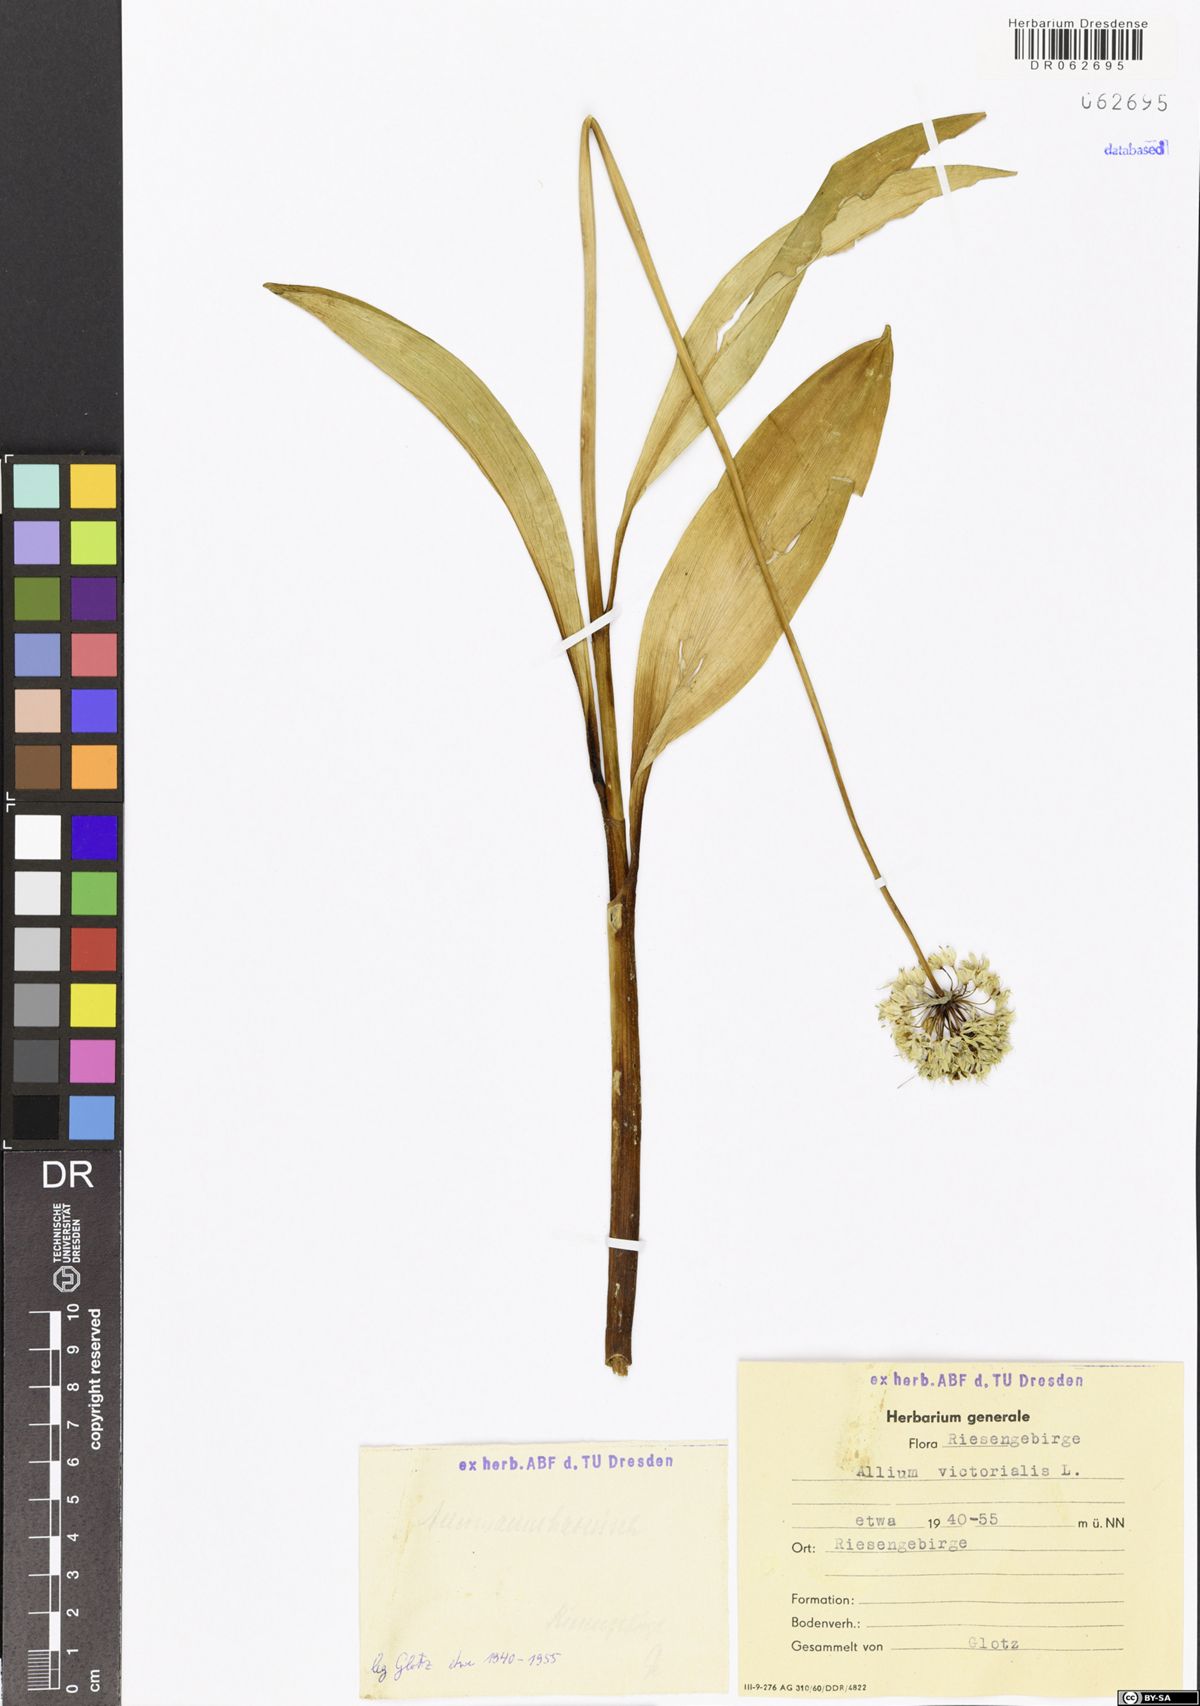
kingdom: Plantae
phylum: Tracheophyta
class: Liliopsida
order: Asparagales
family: Amaryllidaceae
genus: Allium
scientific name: Allium victorialis
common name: Alpine leek
